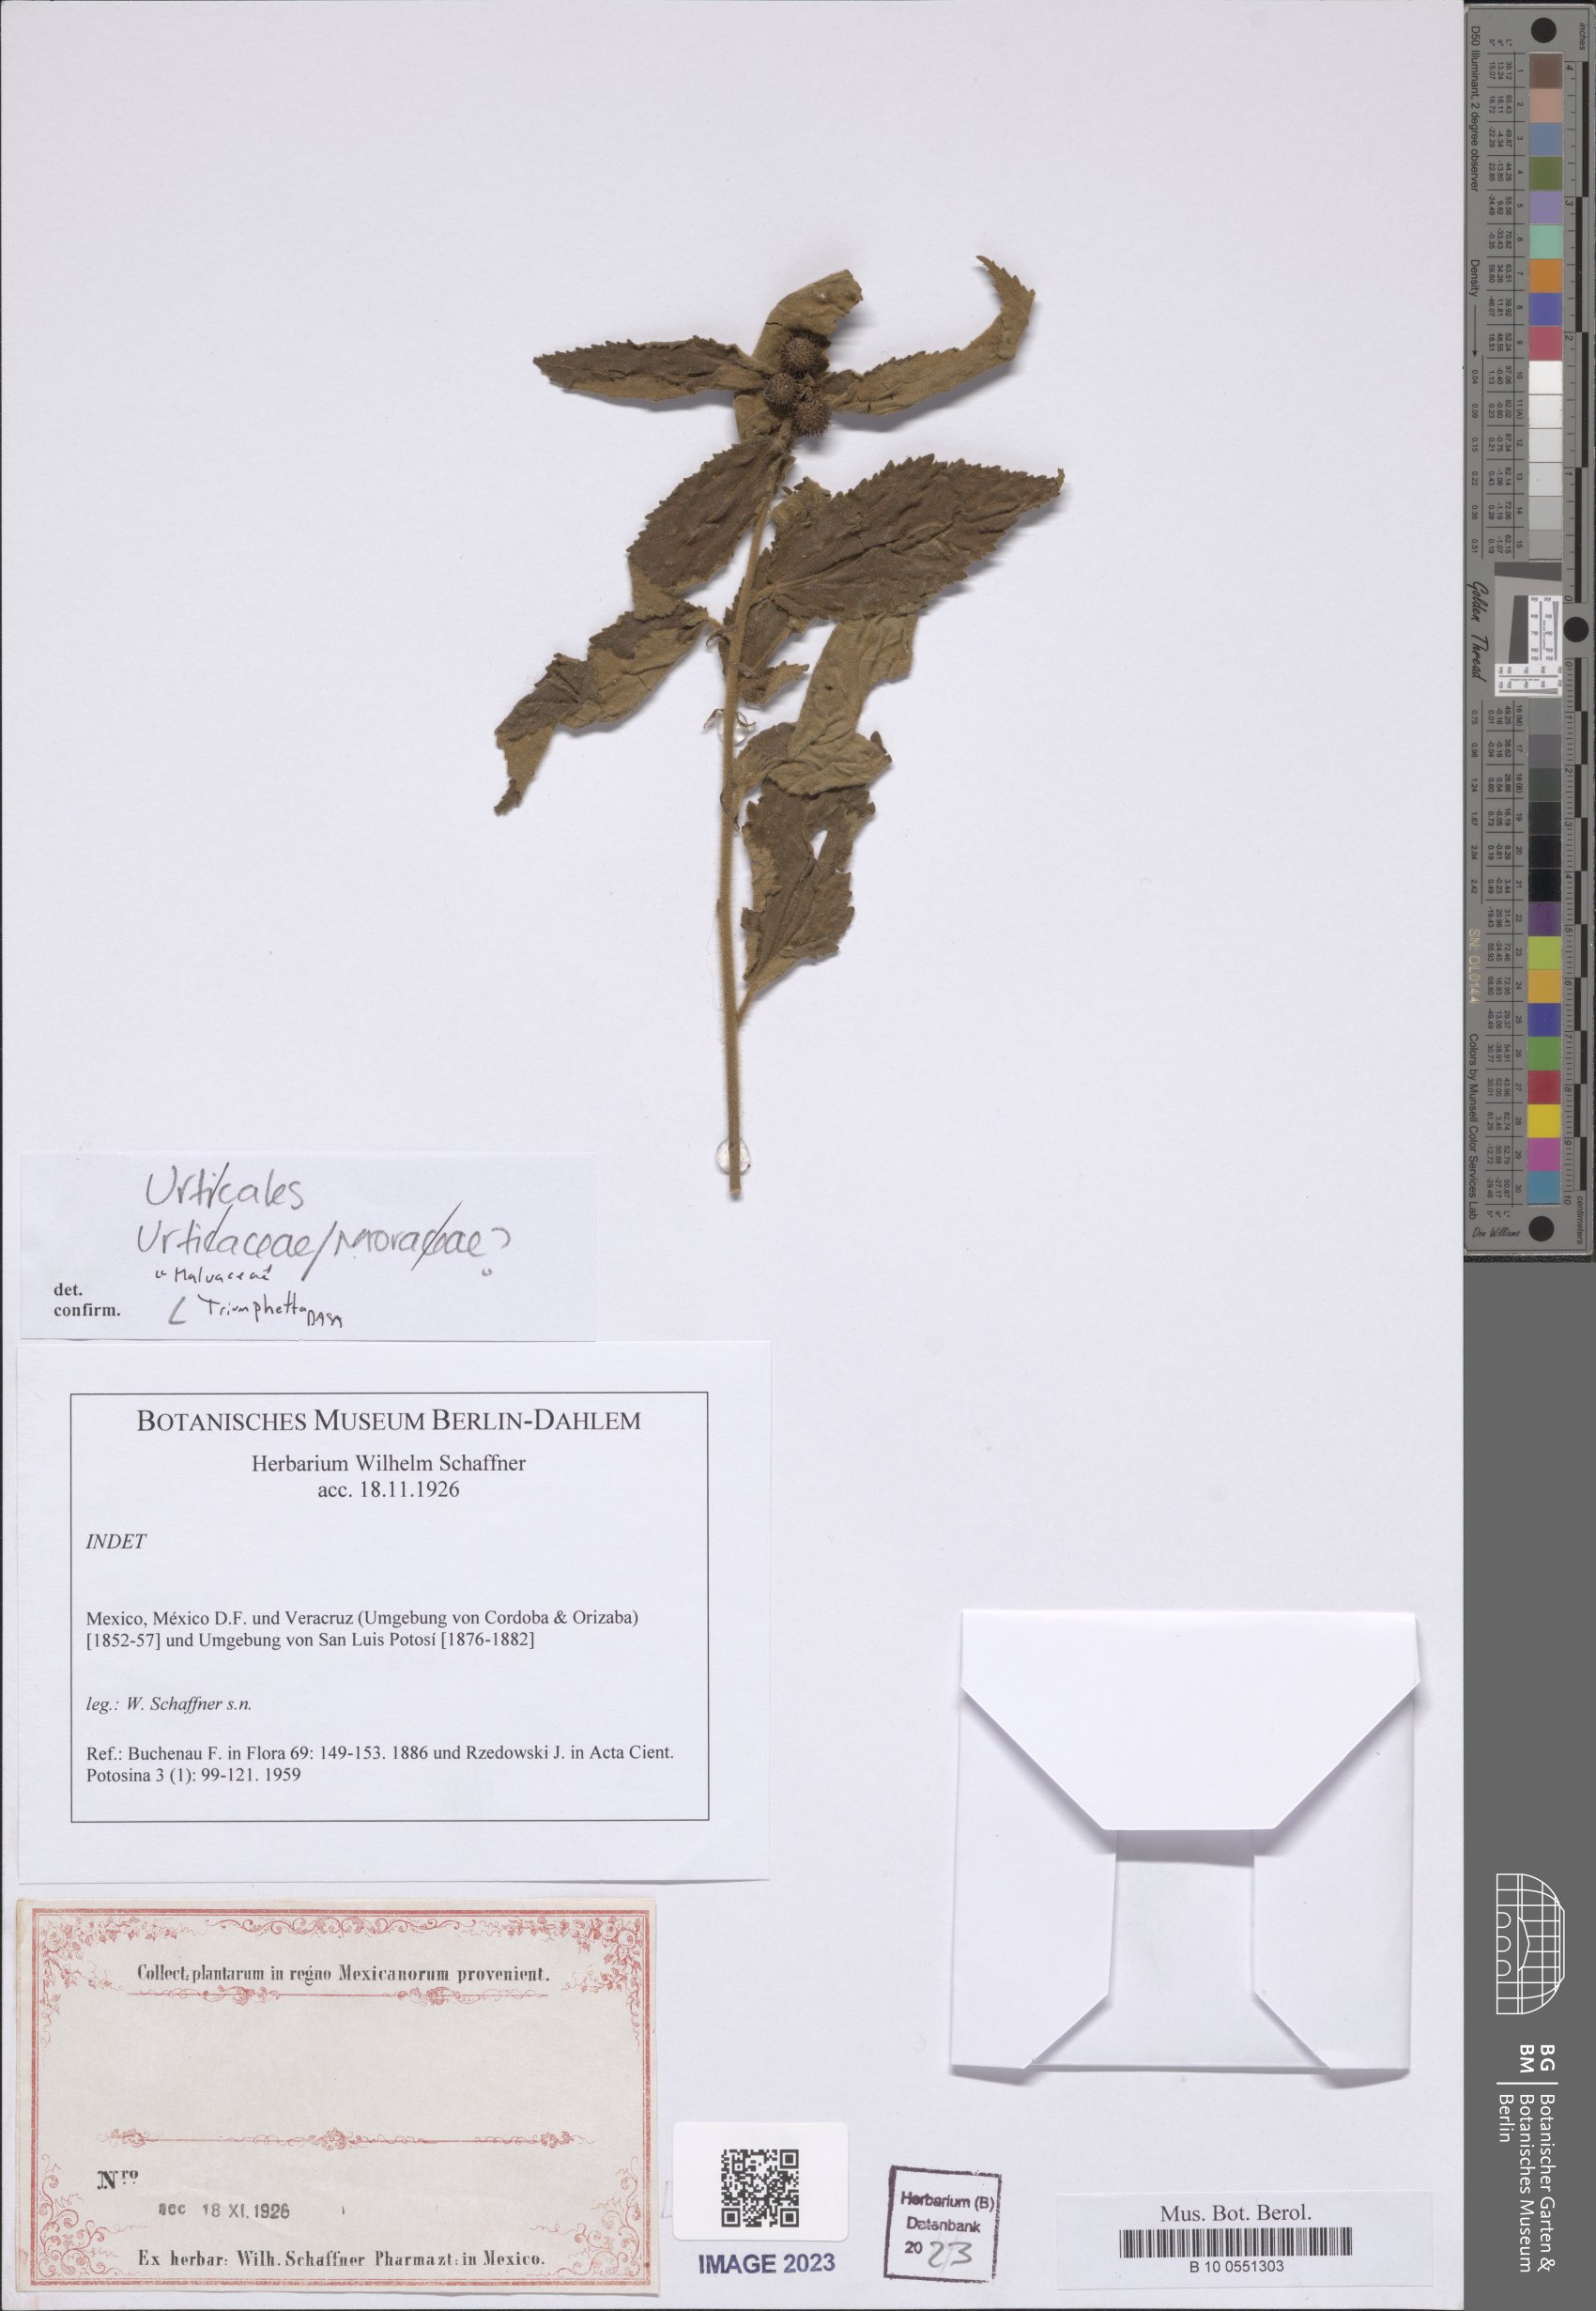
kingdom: Plantae
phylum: Tracheophyta
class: Magnoliopsida
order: Malvales
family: Malvaceae
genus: Triumfetta
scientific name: Triumfetta
